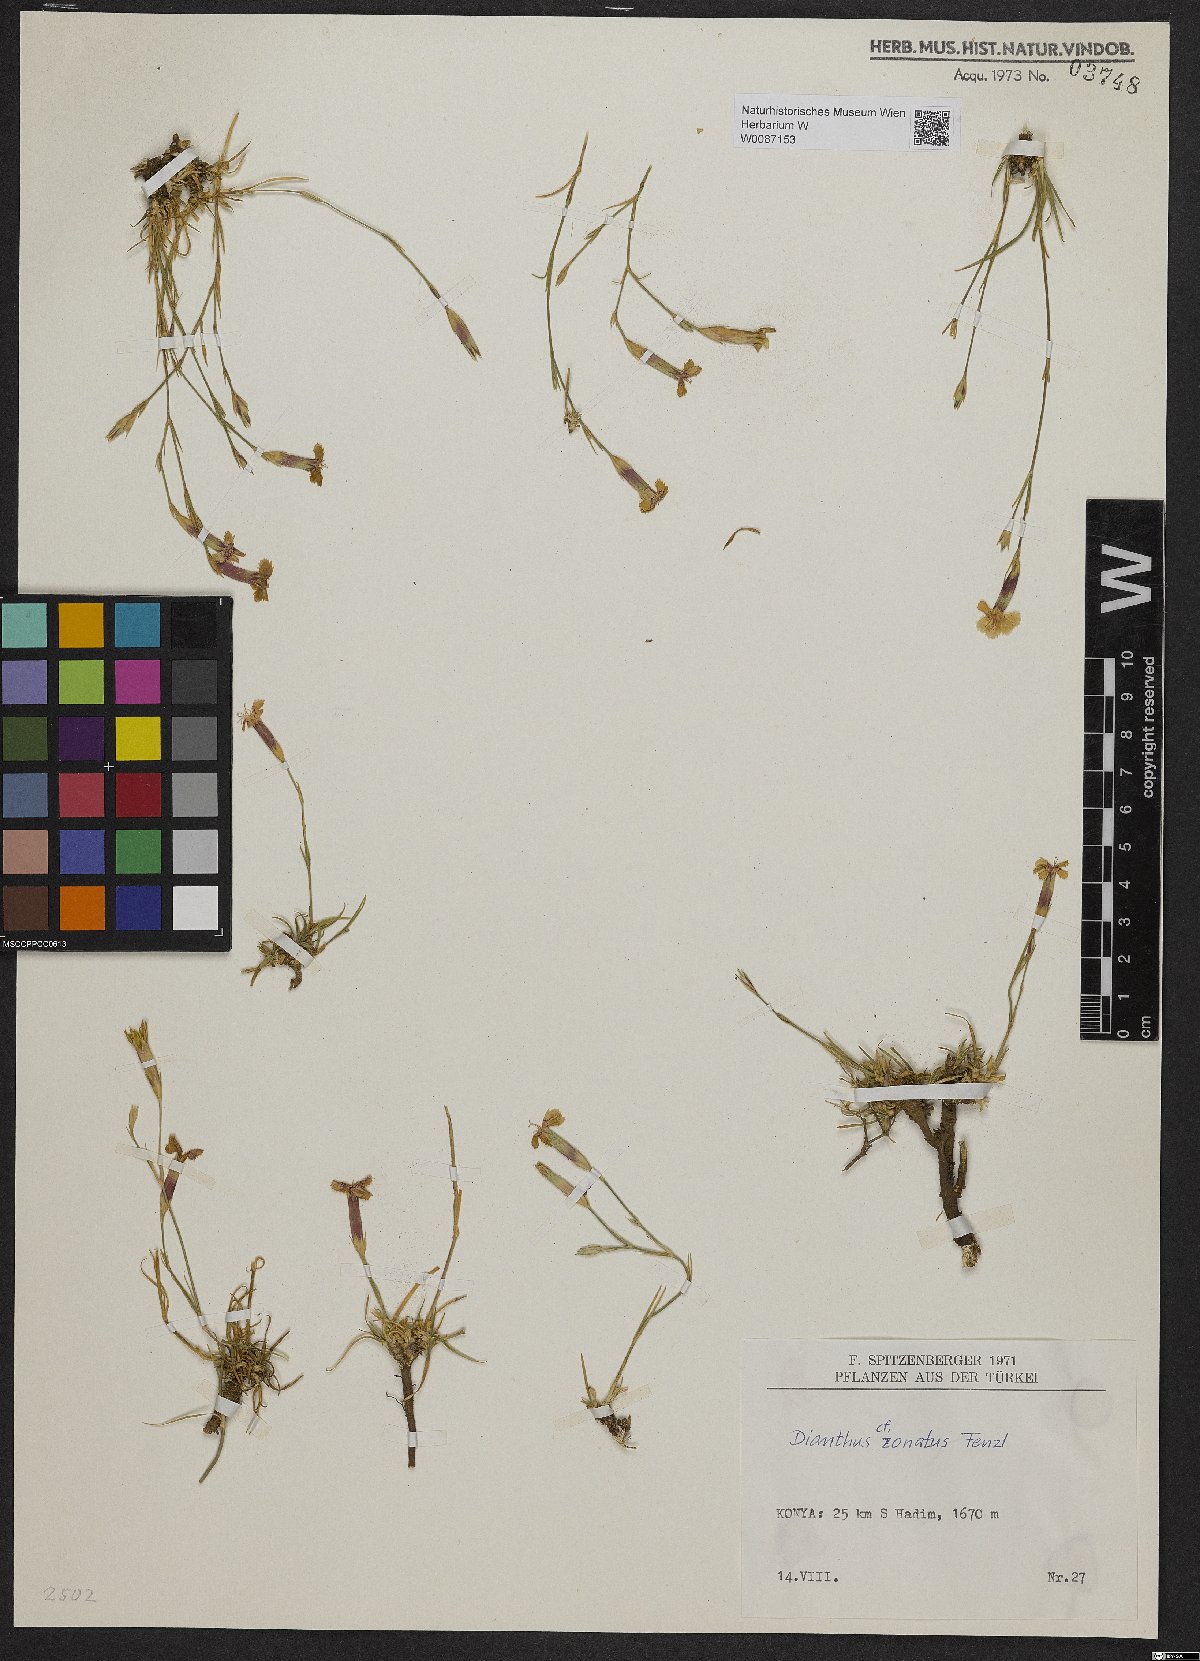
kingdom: Plantae
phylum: Tracheophyta
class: Magnoliopsida
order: Caryophyllales
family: Caryophyllaceae
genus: Dianthus
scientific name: Dianthus zonatus
